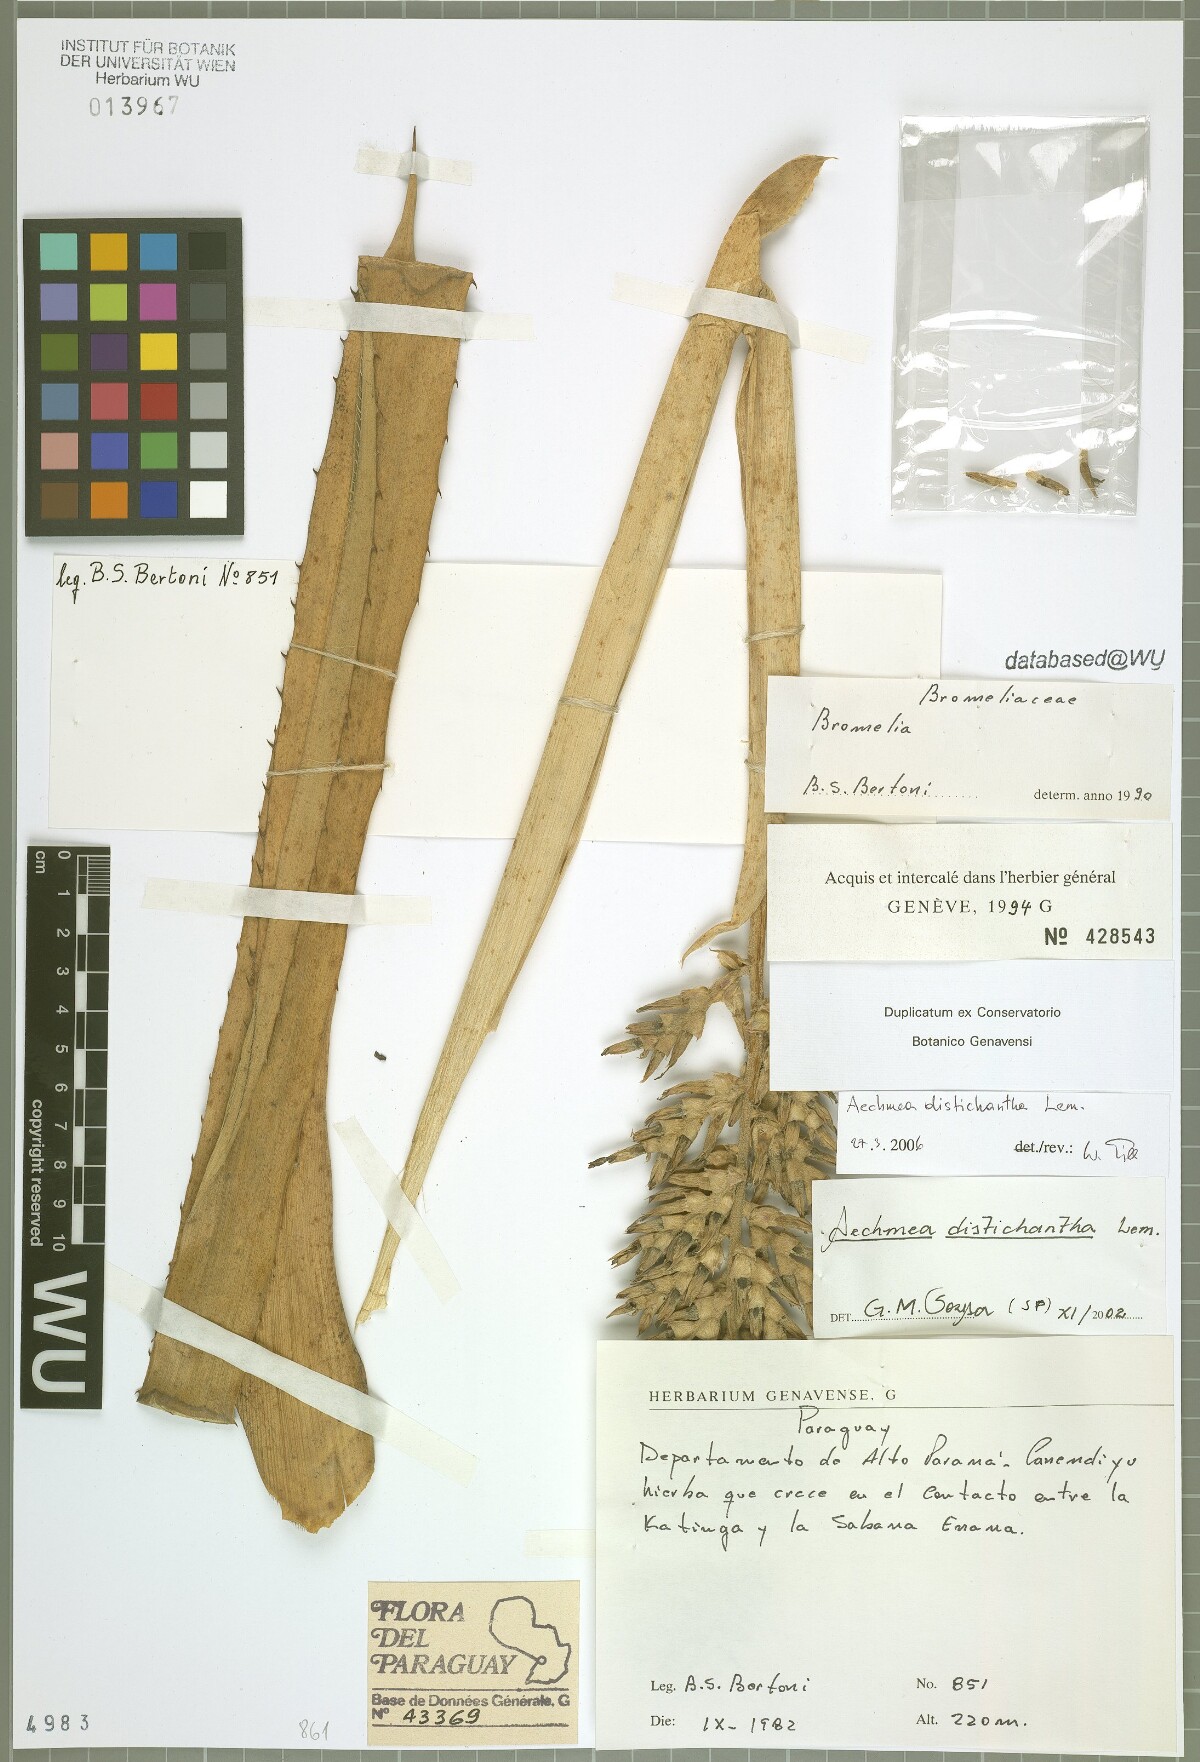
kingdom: Plantae
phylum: Tracheophyta
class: Liliopsida
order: Poales
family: Bromeliaceae
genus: Aechmea
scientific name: Aechmea distichantha
